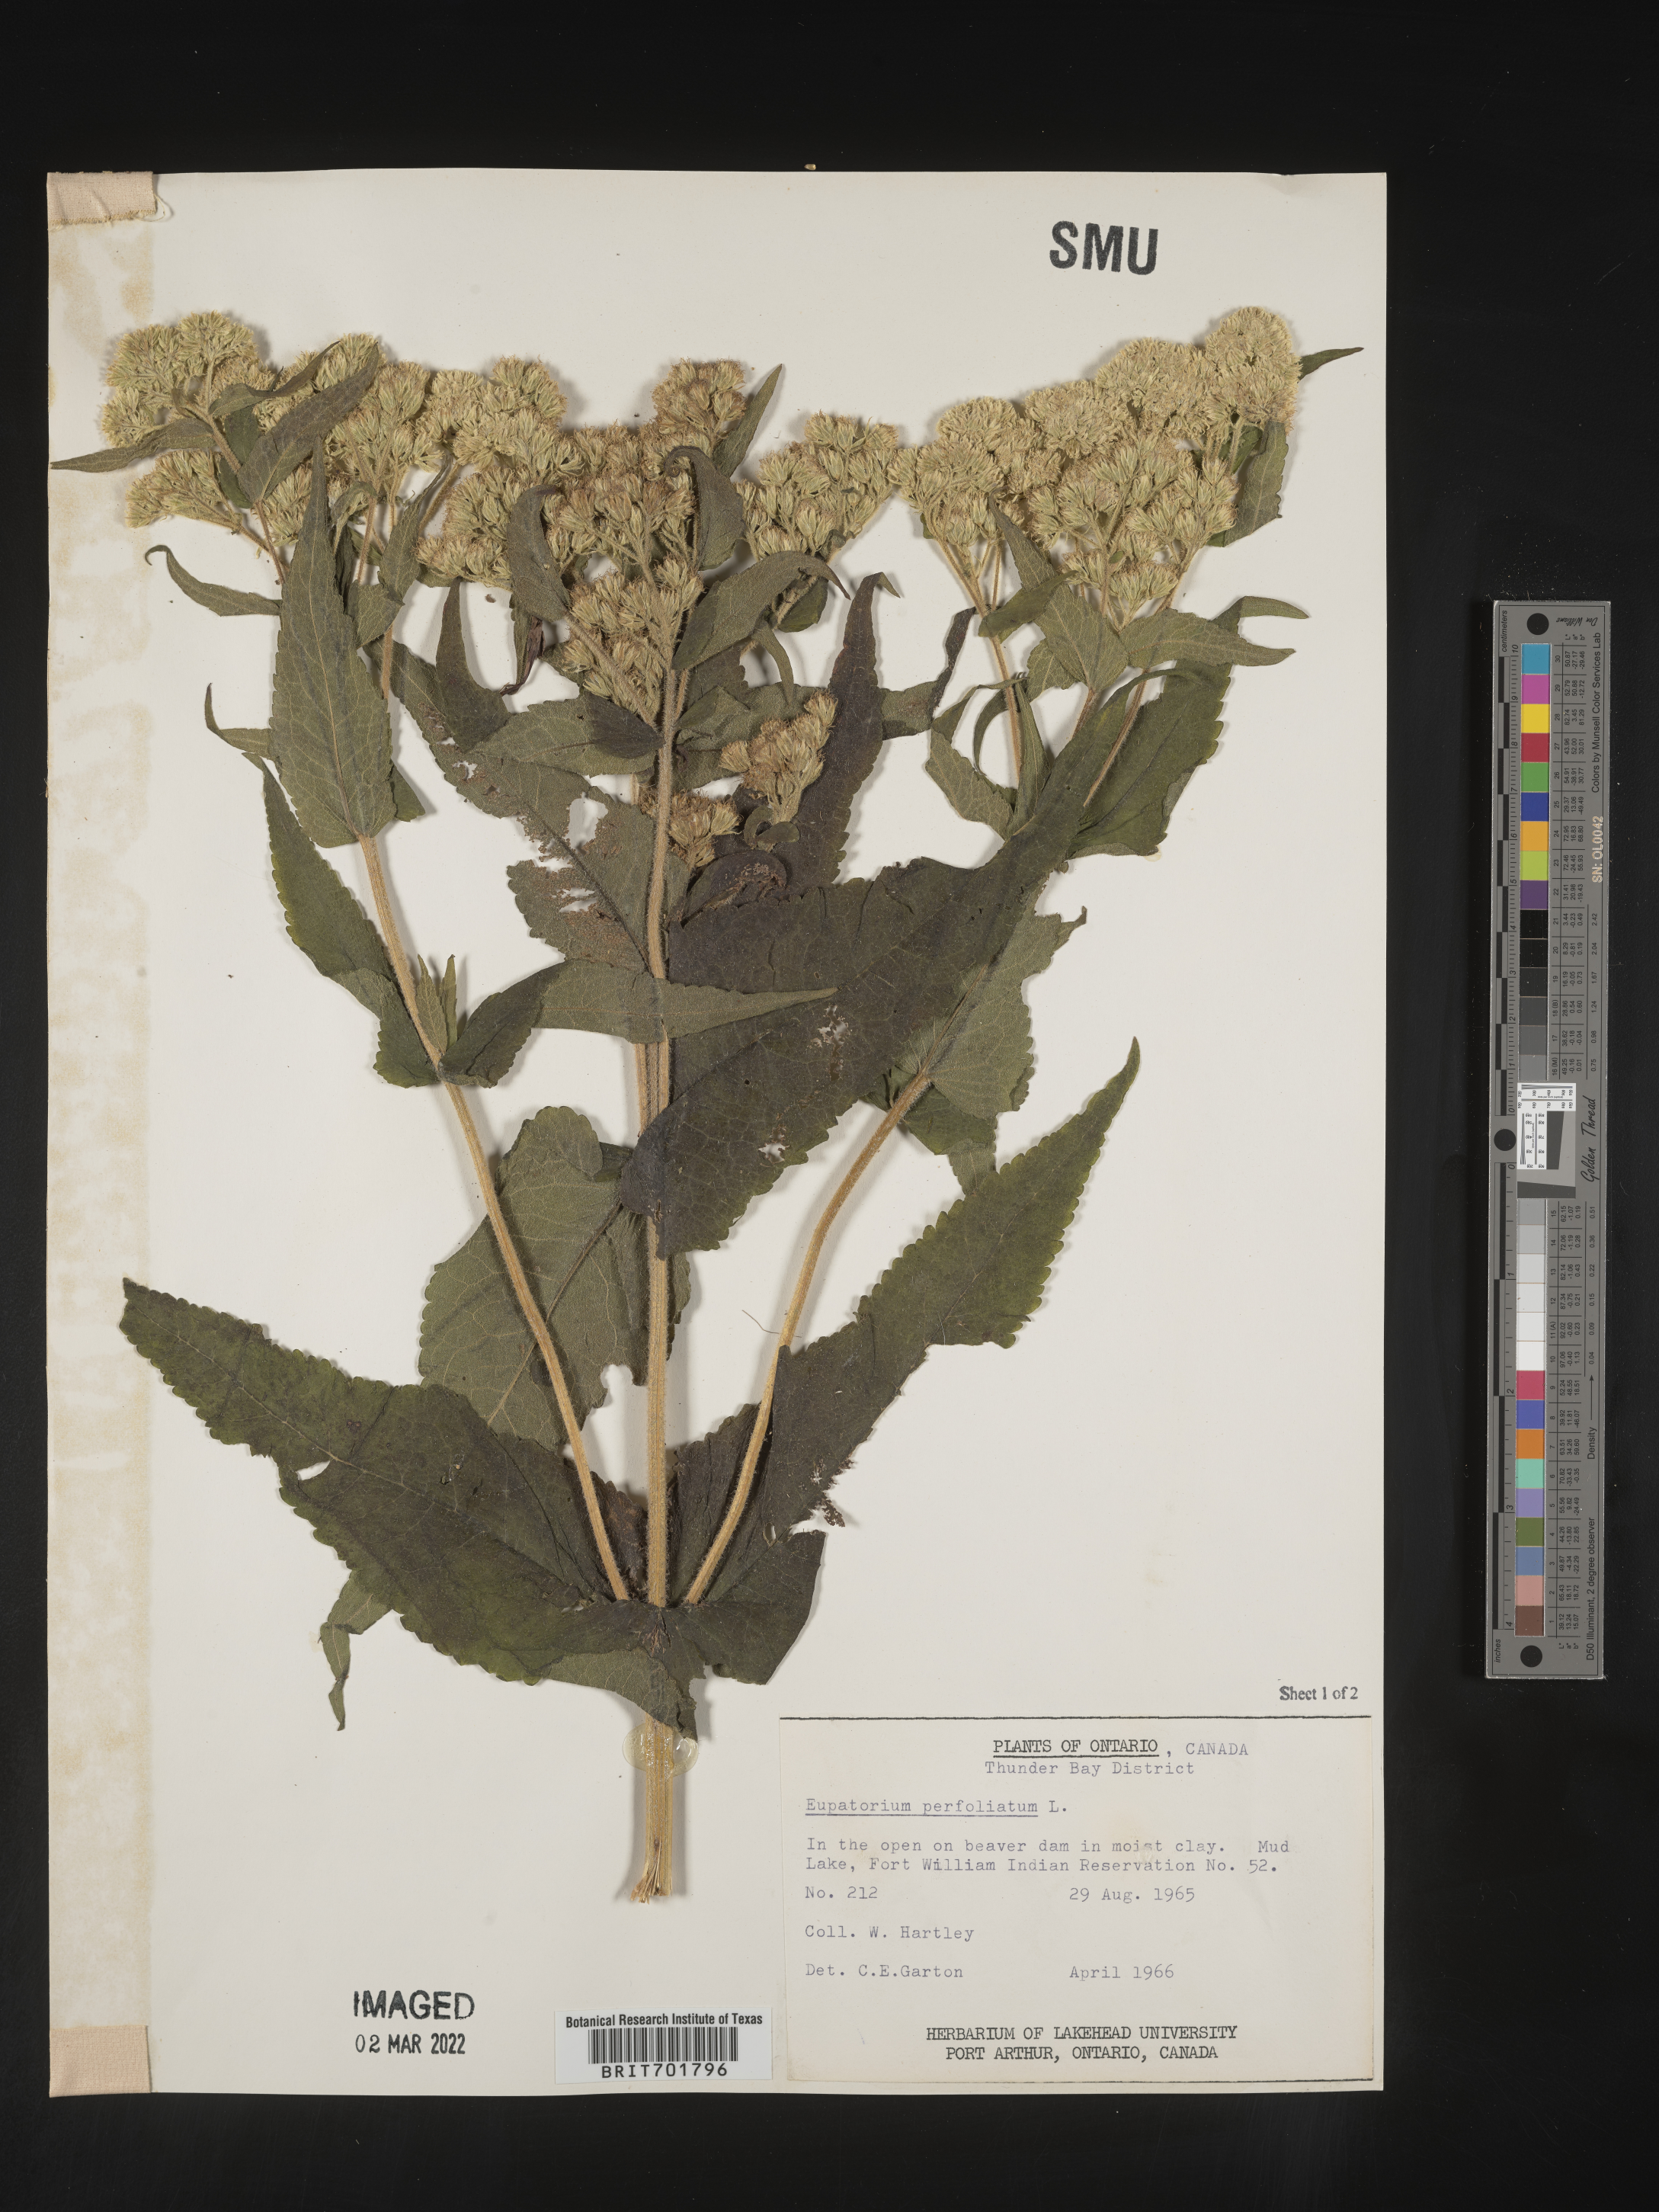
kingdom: Plantae
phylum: Tracheophyta
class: Magnoliopsida
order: Asterales
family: Asteraceae
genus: Eupatorium
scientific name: Eupatorium perfoliatum
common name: Boneset
